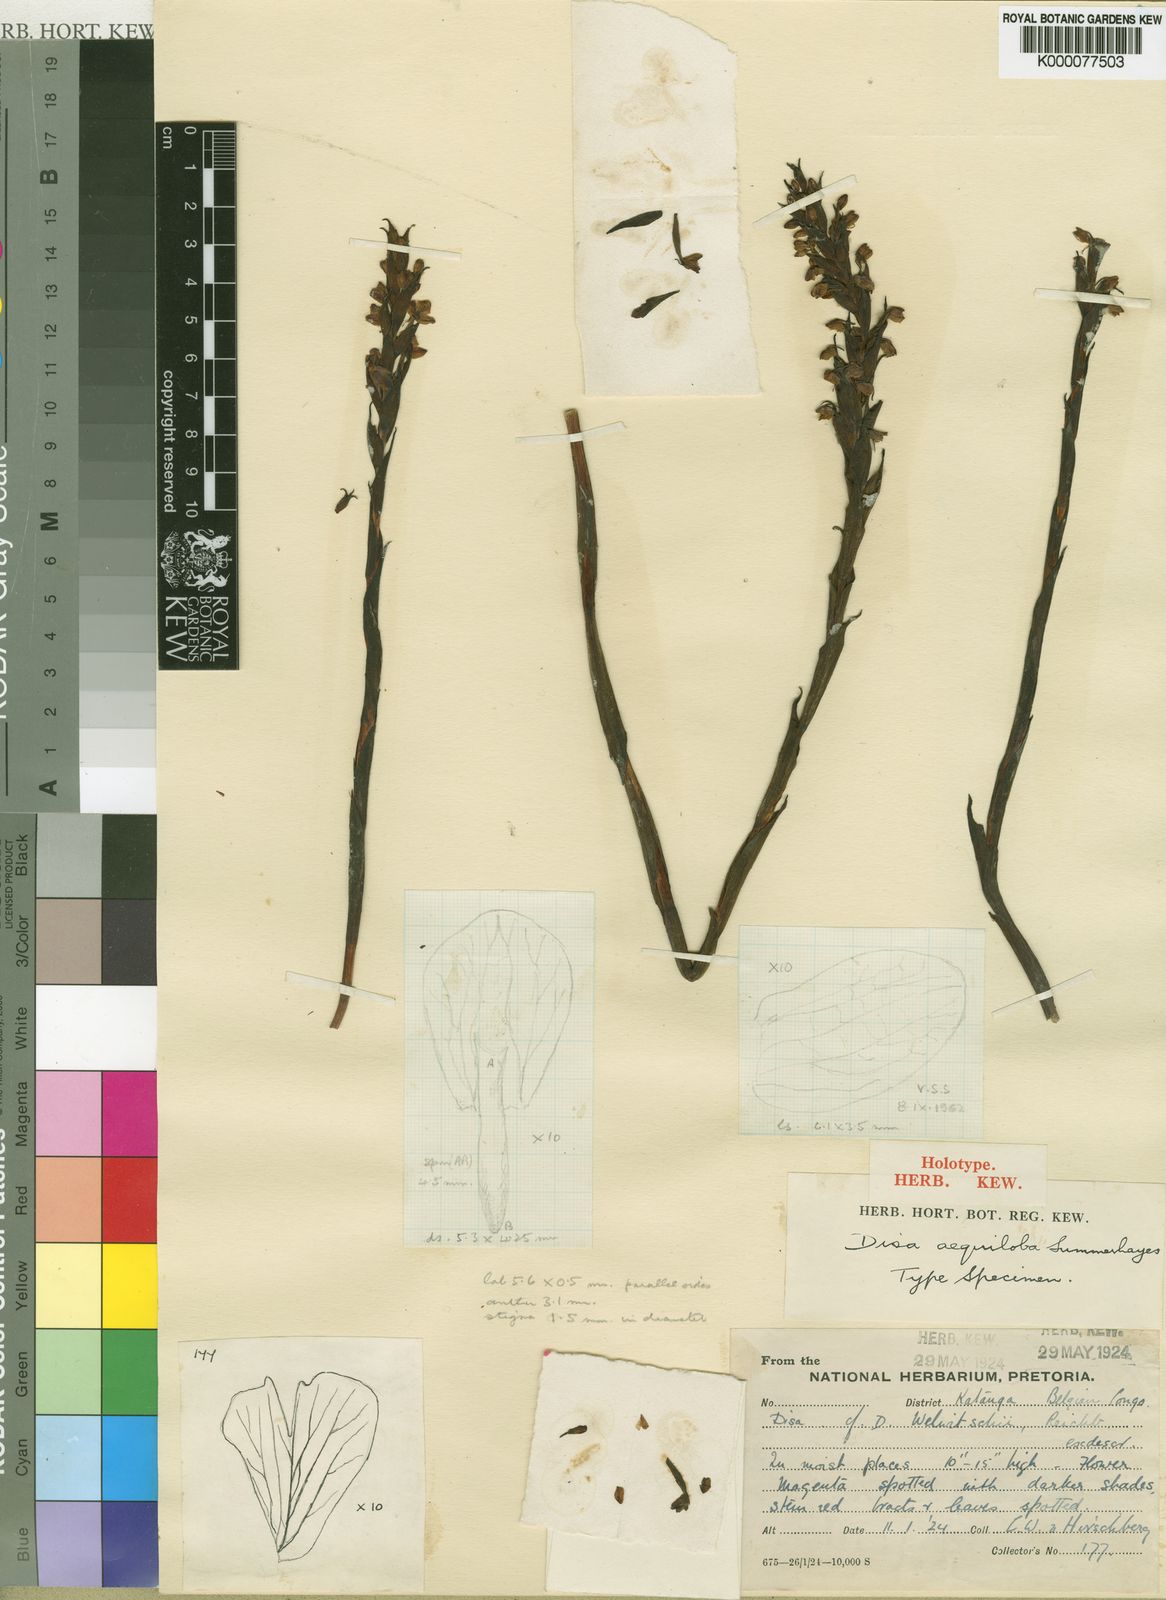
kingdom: Plantae
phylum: Tracheophyta
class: Liliopsida
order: Asparagales
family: Orchidaceae
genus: Disa
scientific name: Disa aequiloba
